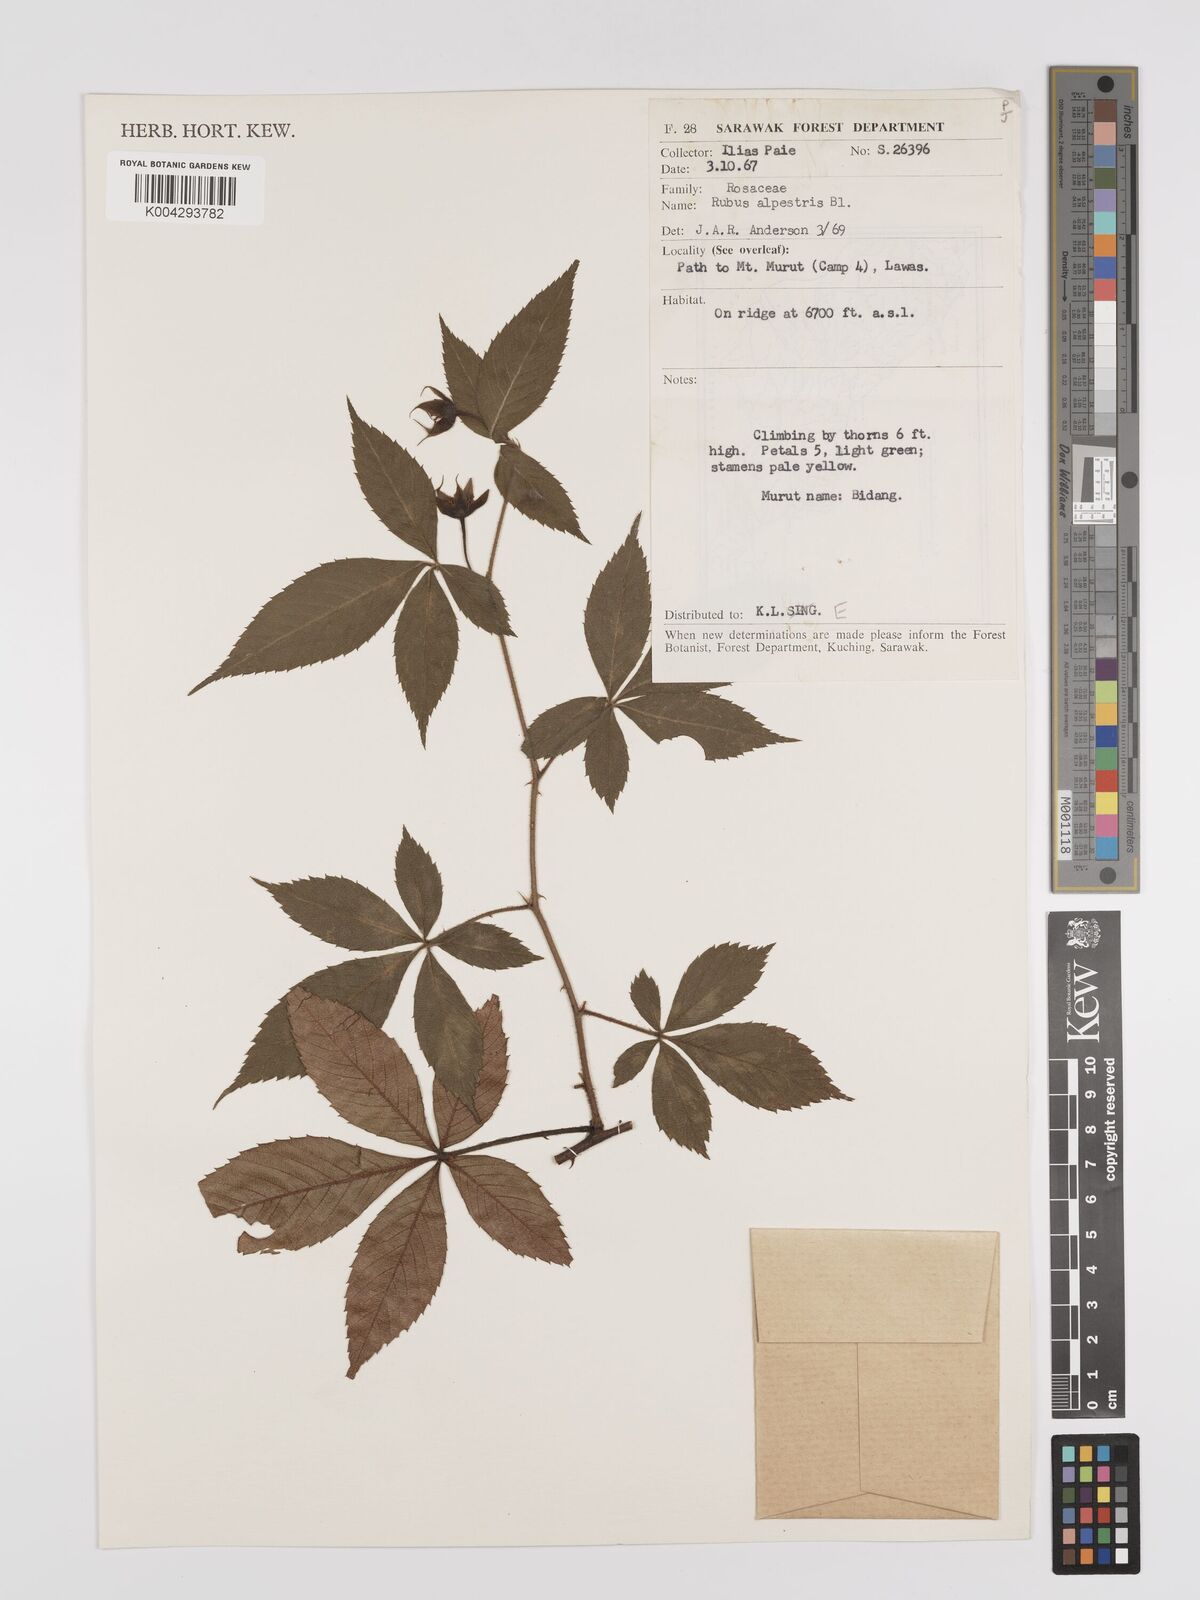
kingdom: Plantae
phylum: Tracheophyta
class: Magnoliopsida
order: Rosales
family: Rosaceae
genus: Rubus
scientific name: Rubus alpestris
